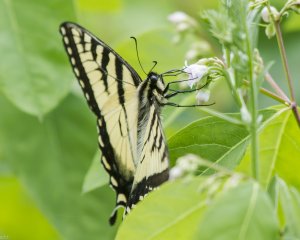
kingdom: Animalia
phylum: Arthropoda
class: Insecta
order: Lepidoptera
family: Papilionidae
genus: Pterourus
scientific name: Pterourus canadensis
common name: Canadian Tiger Swallowtail
